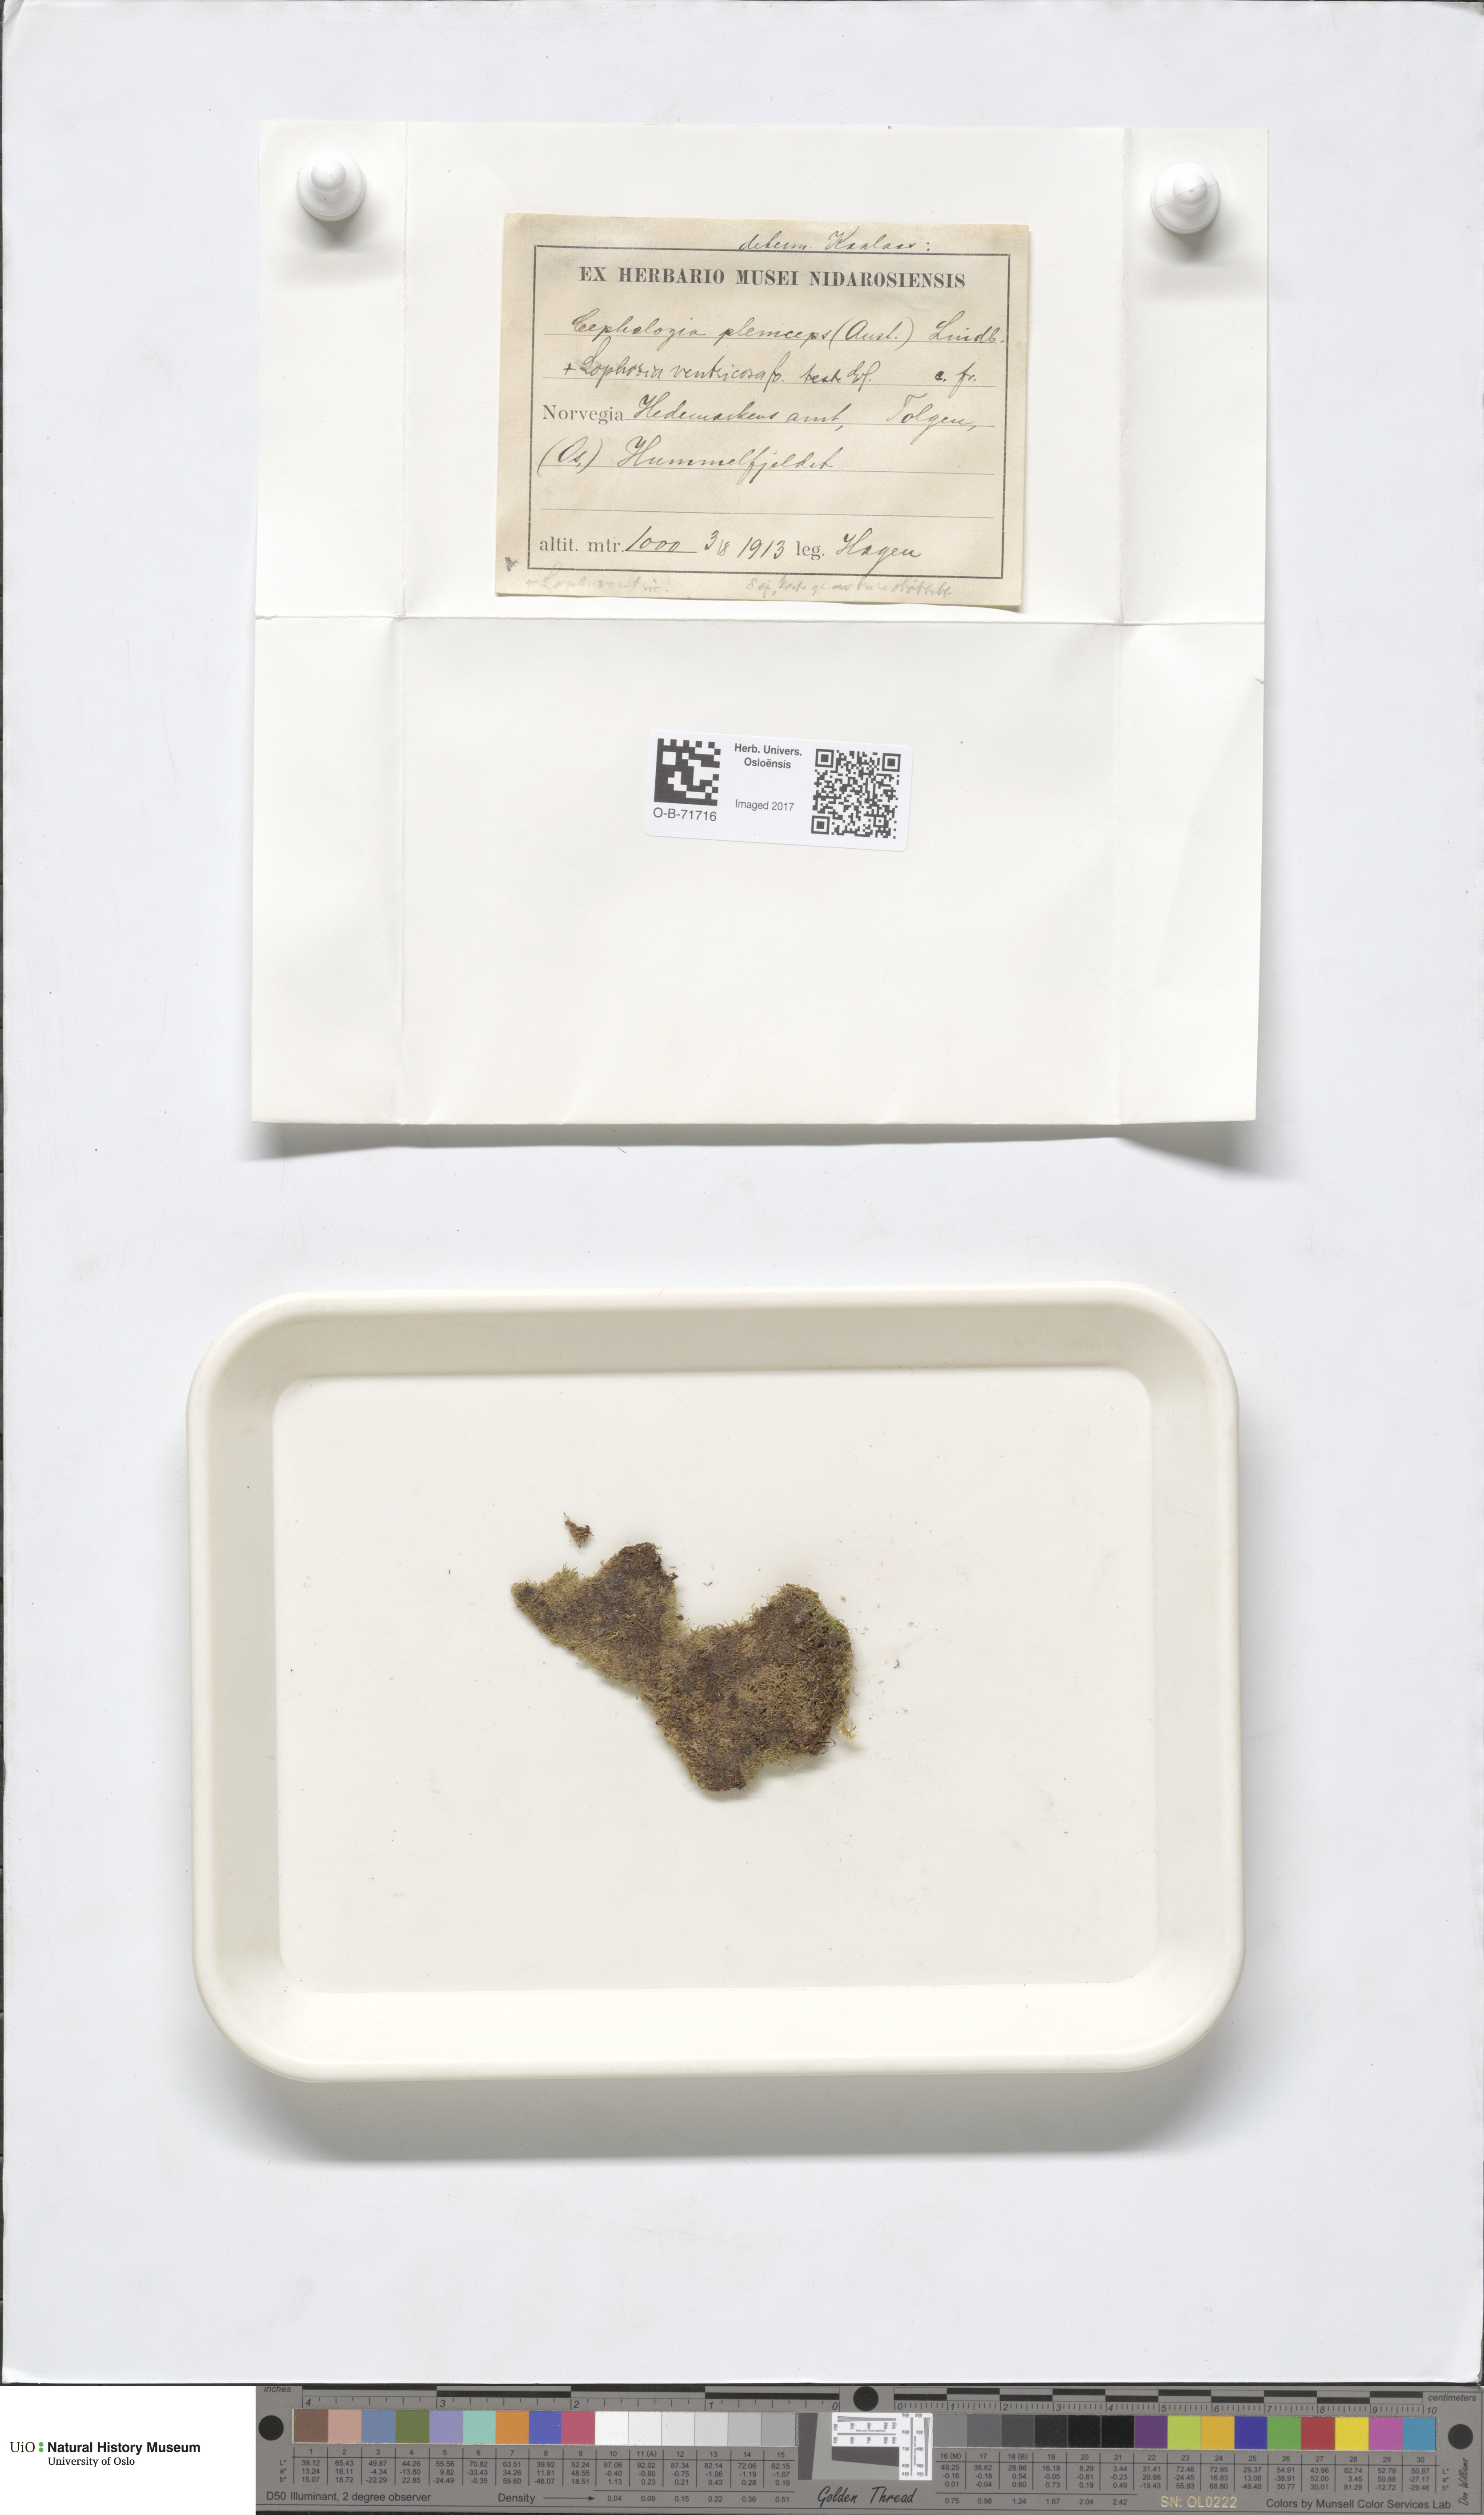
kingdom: Plantae
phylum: Marchantiophyta
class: Jungermanniopsida
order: Jungermanniales
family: Cephaloziaceae
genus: Fuscocephaloziopsis
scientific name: Fuscocephaloziopsis pleniceps
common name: Blunt pincerwort
